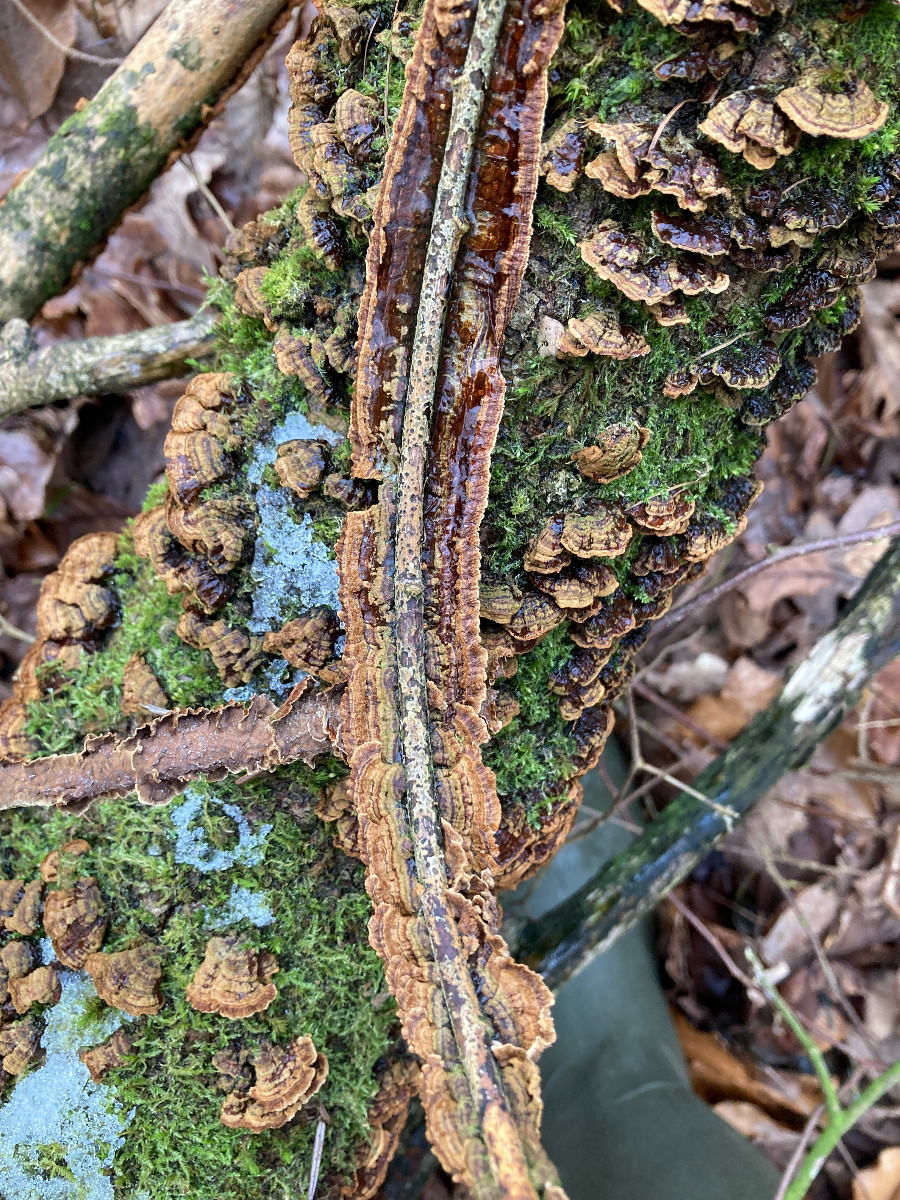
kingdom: Fungi
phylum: Basidiomycota
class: Agaricomycetes
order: Hymenochaetales
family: Hymenochaetaceae
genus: Hydnoporia
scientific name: Hydnoporia tabacina
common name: tobaksbrun ruslædersvamp
